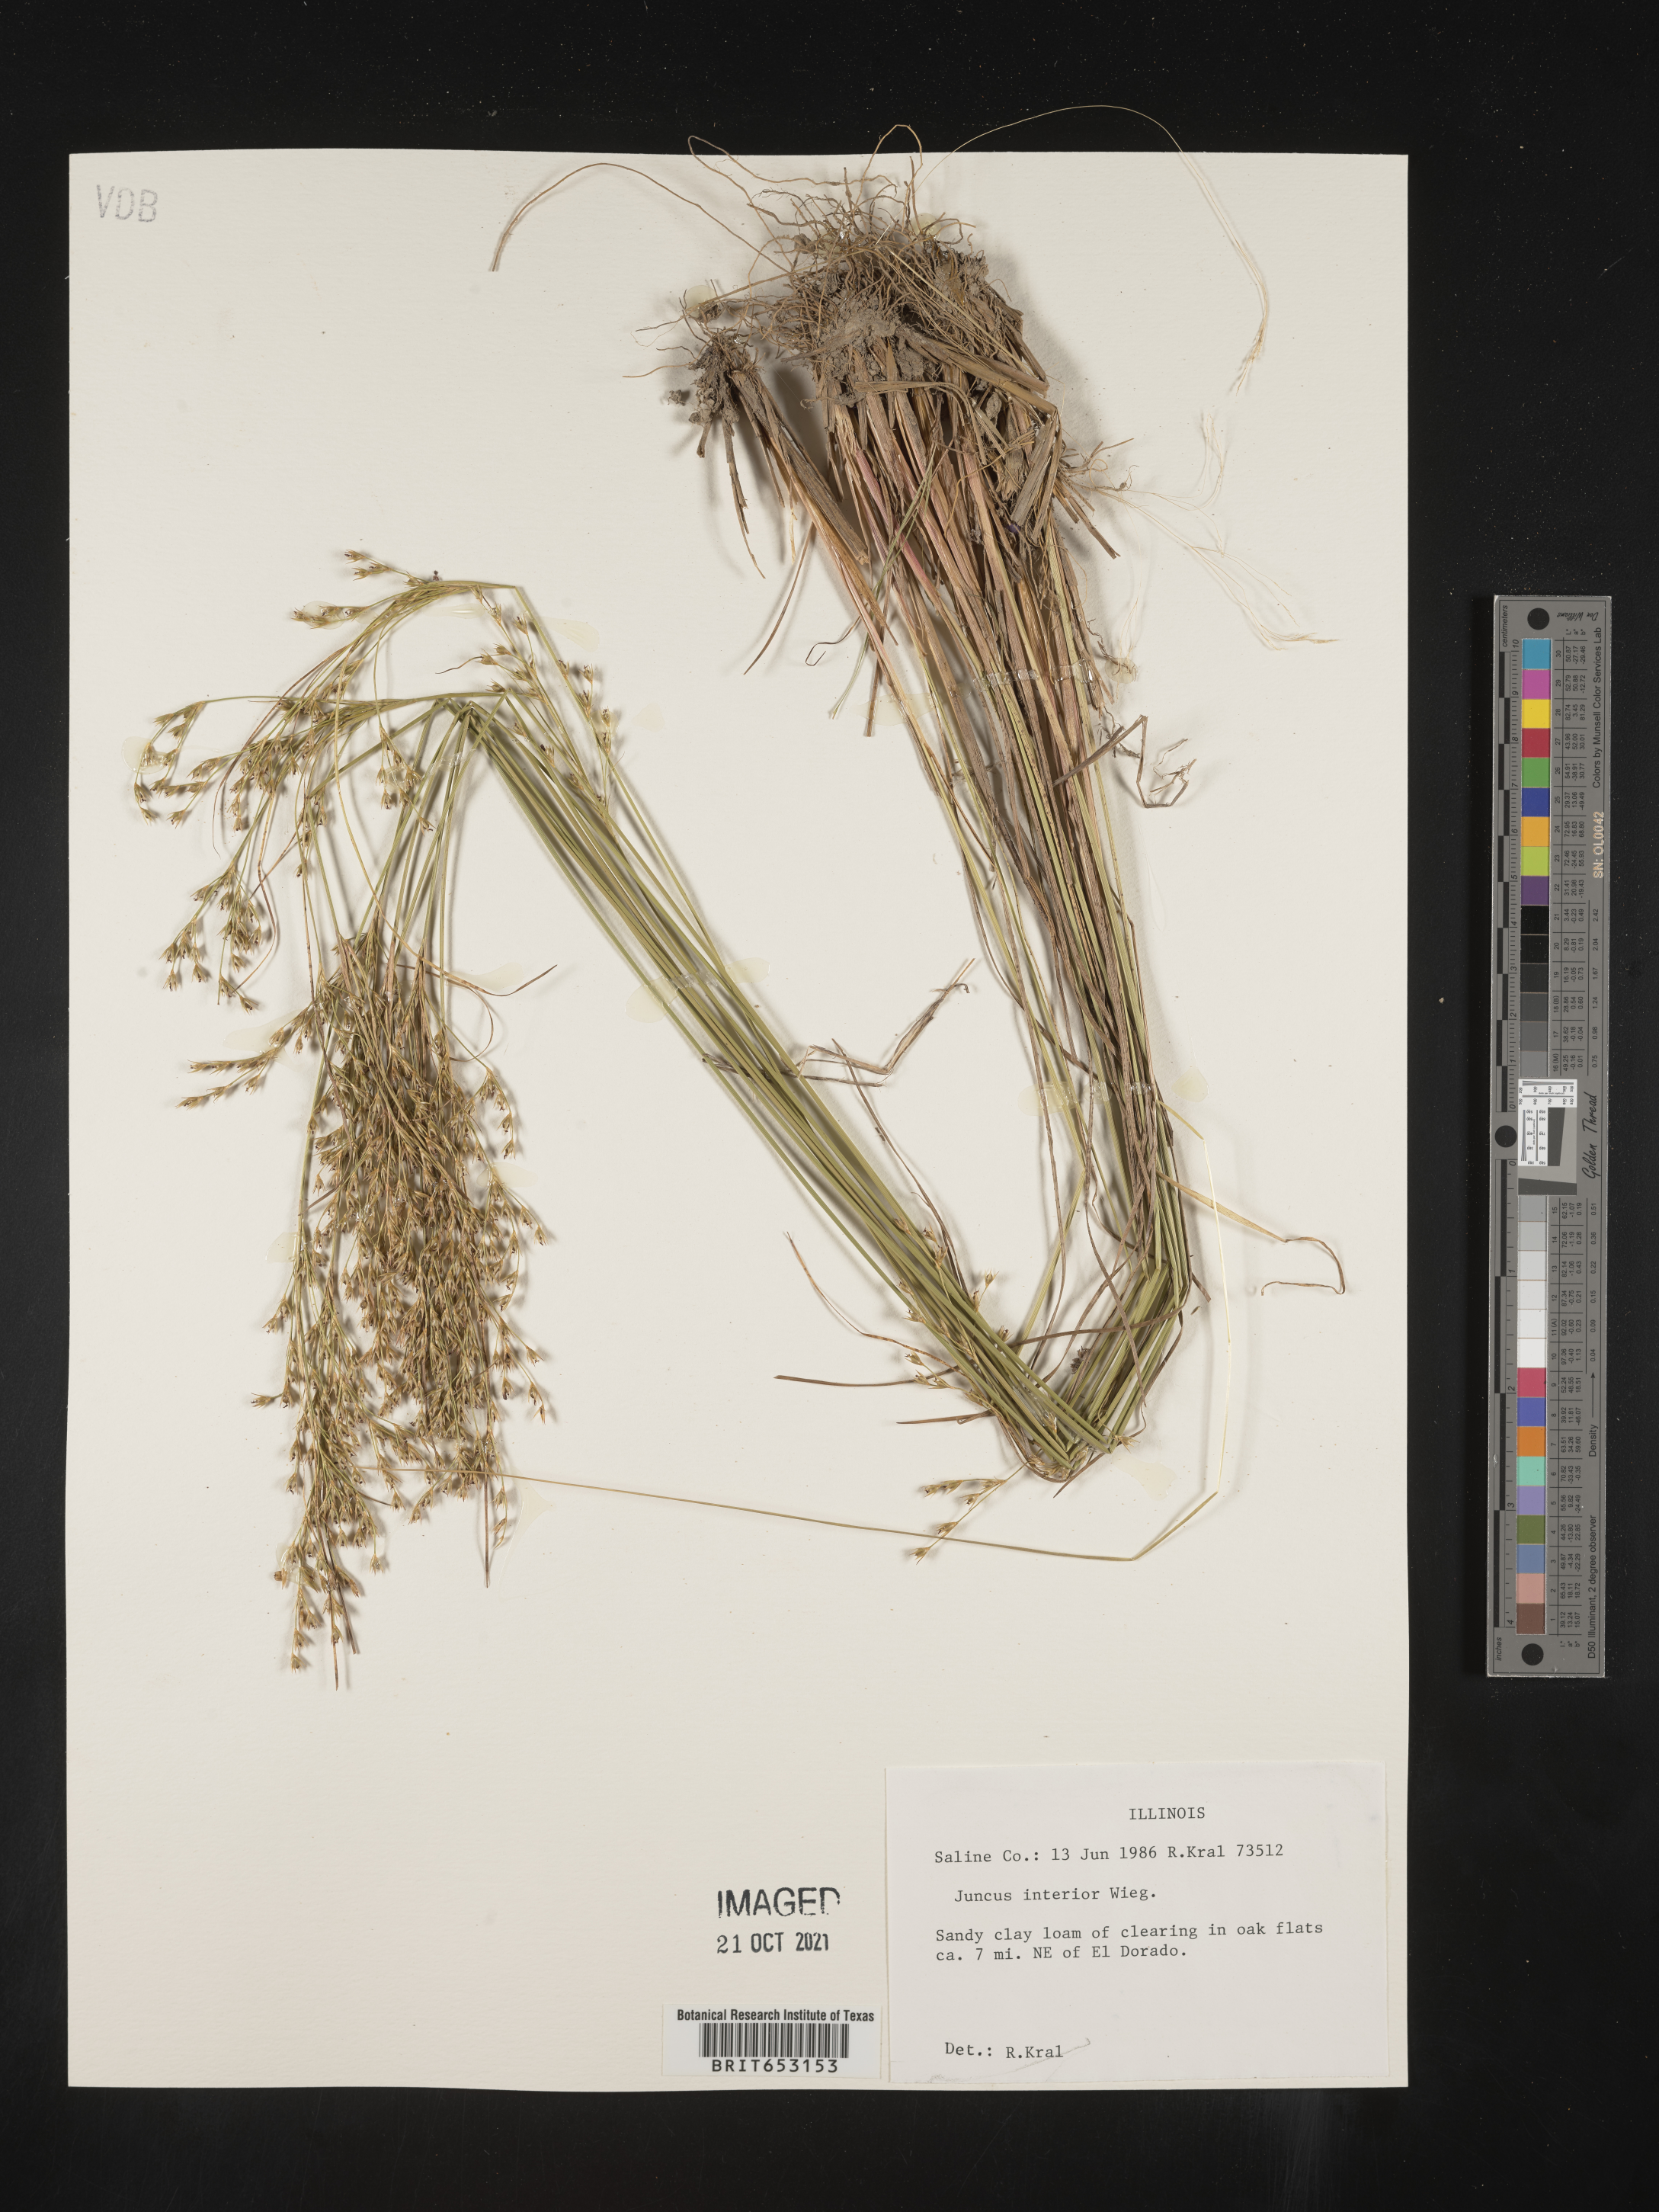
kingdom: Plantae
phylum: Tracheophyta
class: Liliopsida
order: Poales
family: Juncaceae
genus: Juncus
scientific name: Juncus interior
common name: Interior rush
